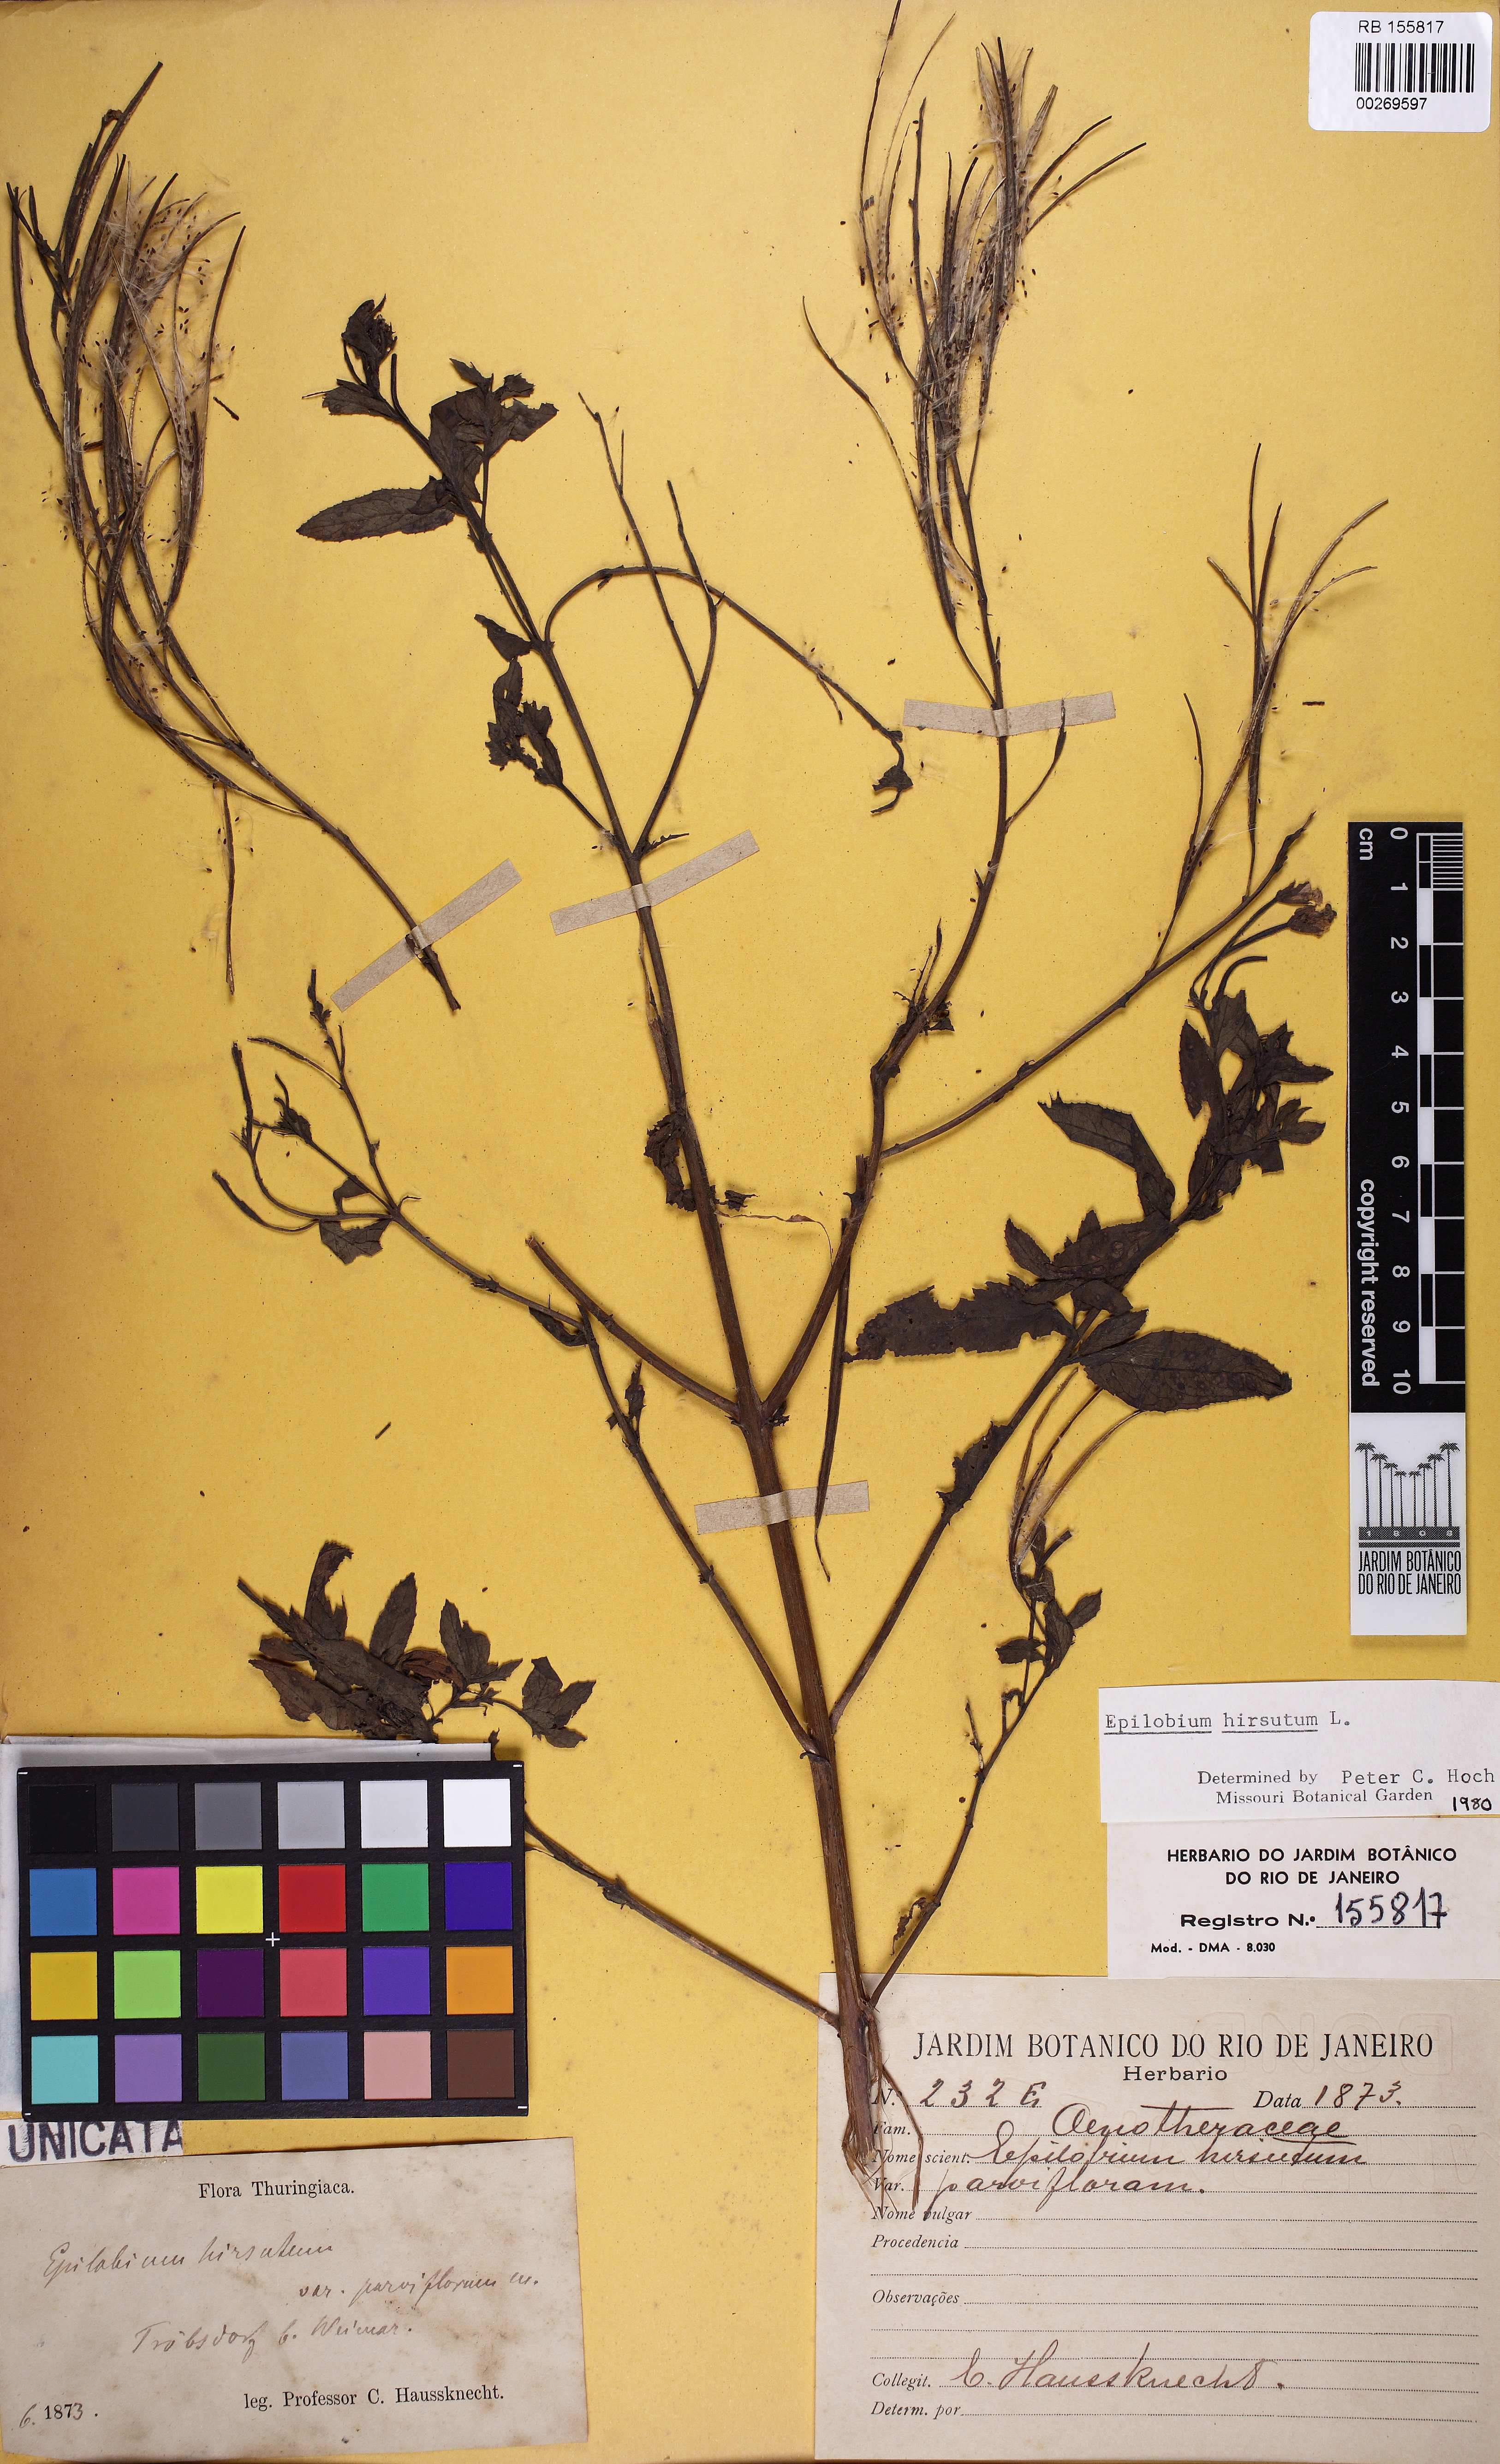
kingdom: Plantae
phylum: Tracheophyta
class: Magnoliopsida
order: Myrtales
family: Onagraceae
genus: Epilobium
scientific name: Epilobium hirsutum
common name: Great willowherb
